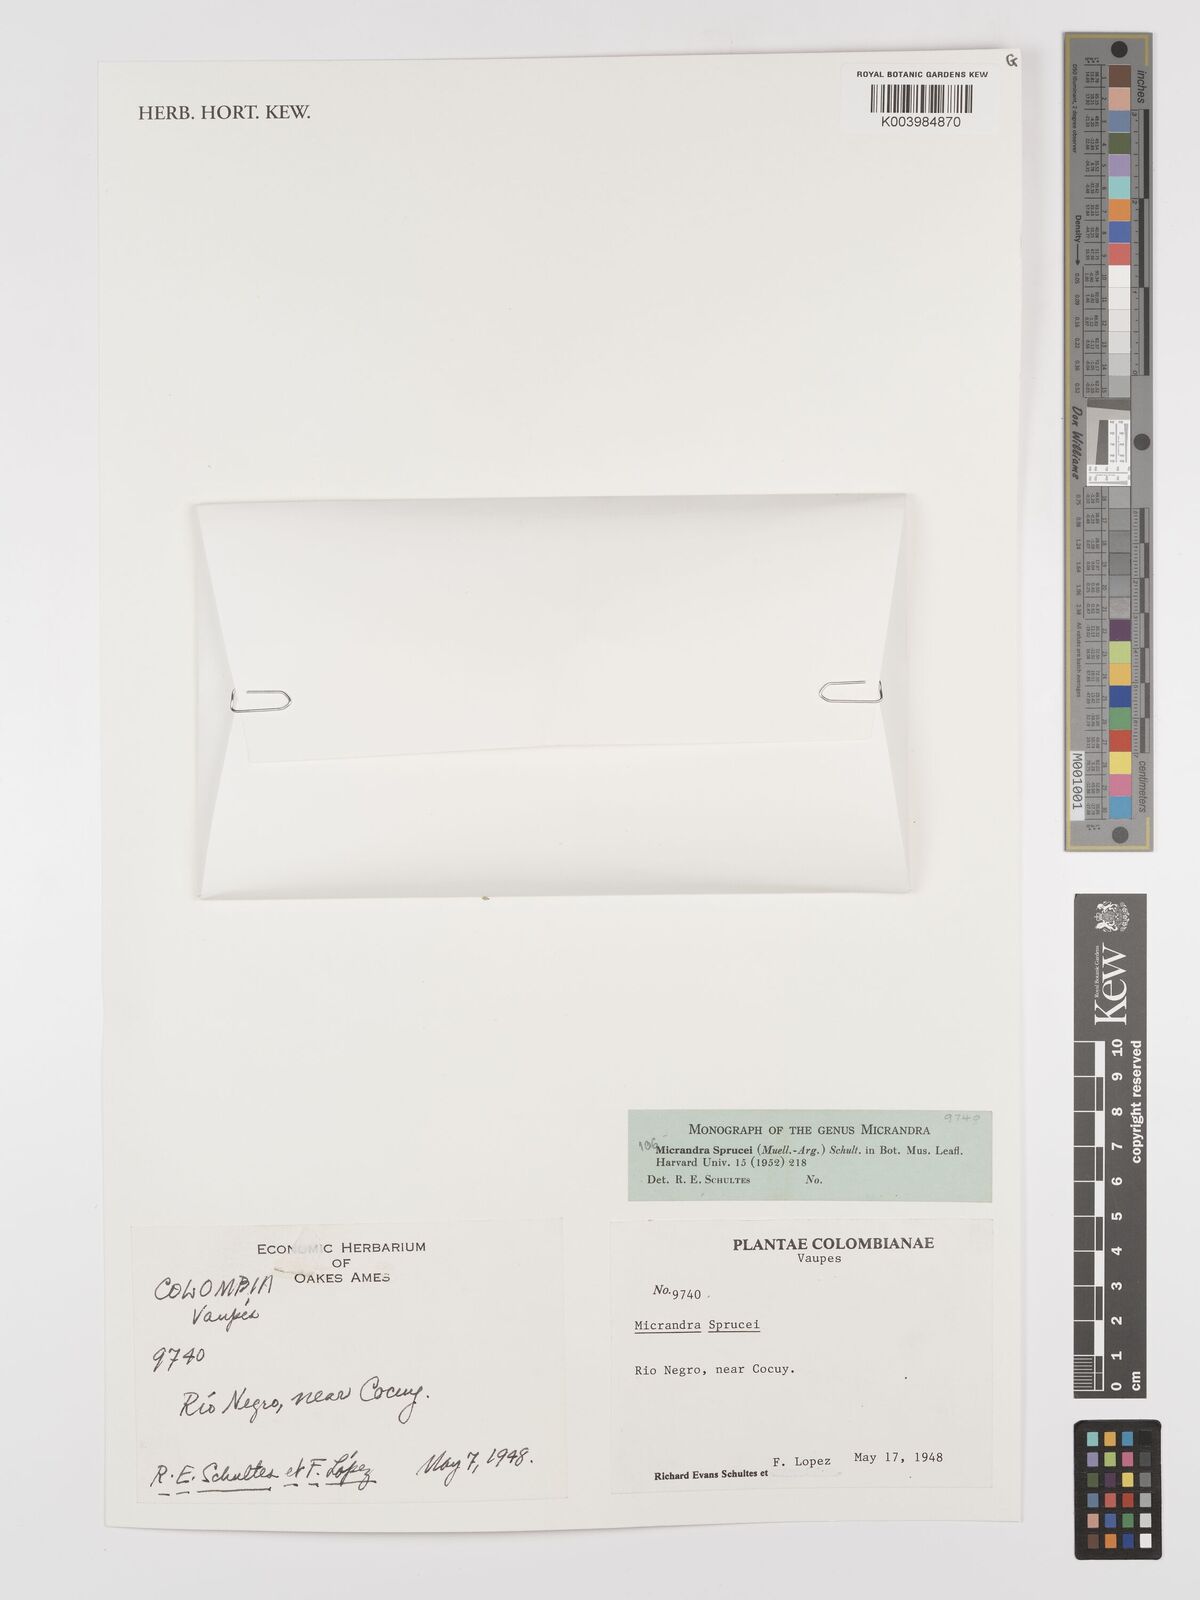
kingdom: Plantae
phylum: Tracheophyta
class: Magnoliopsida
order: Malpighiales
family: Euphorbiaceae
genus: Micrandra
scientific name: Micrandra spruceana
